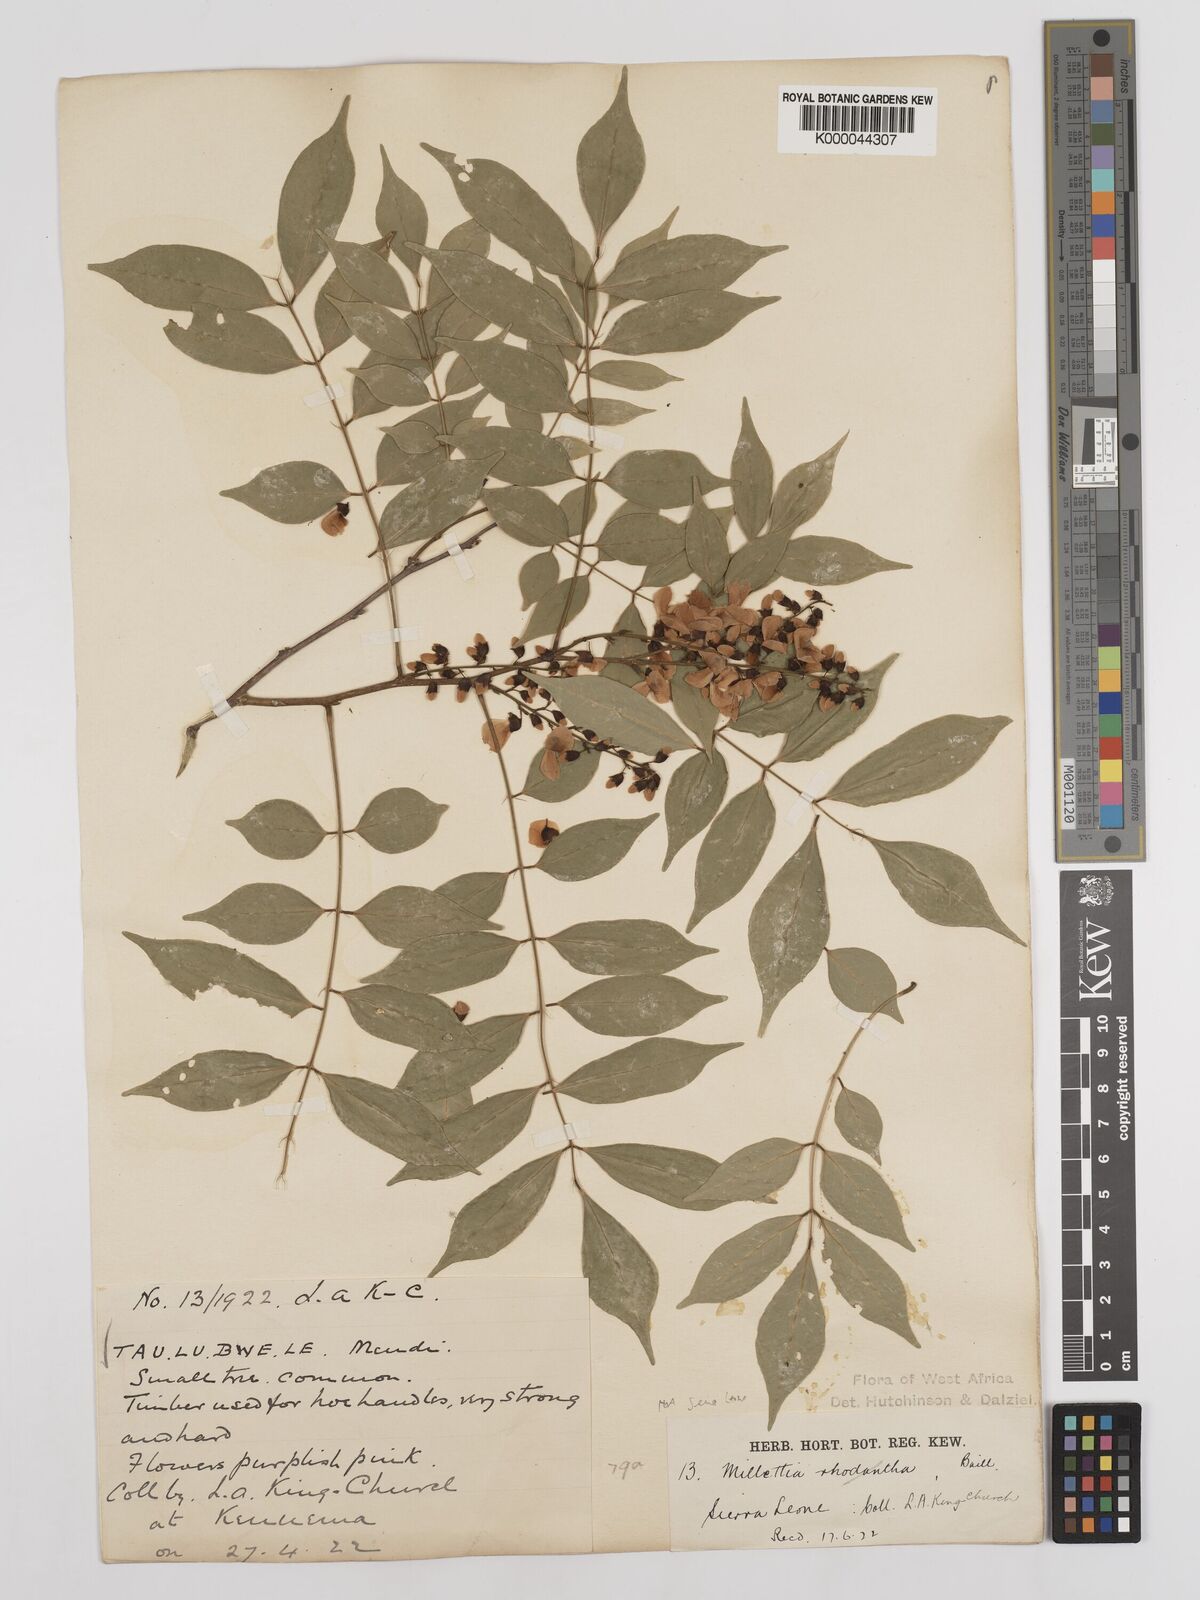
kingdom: Plantae
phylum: Tracheophyta
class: Magnoliopsida
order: Fabales
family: Fabaceae
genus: Millettia
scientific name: Millettia lane-poolei
